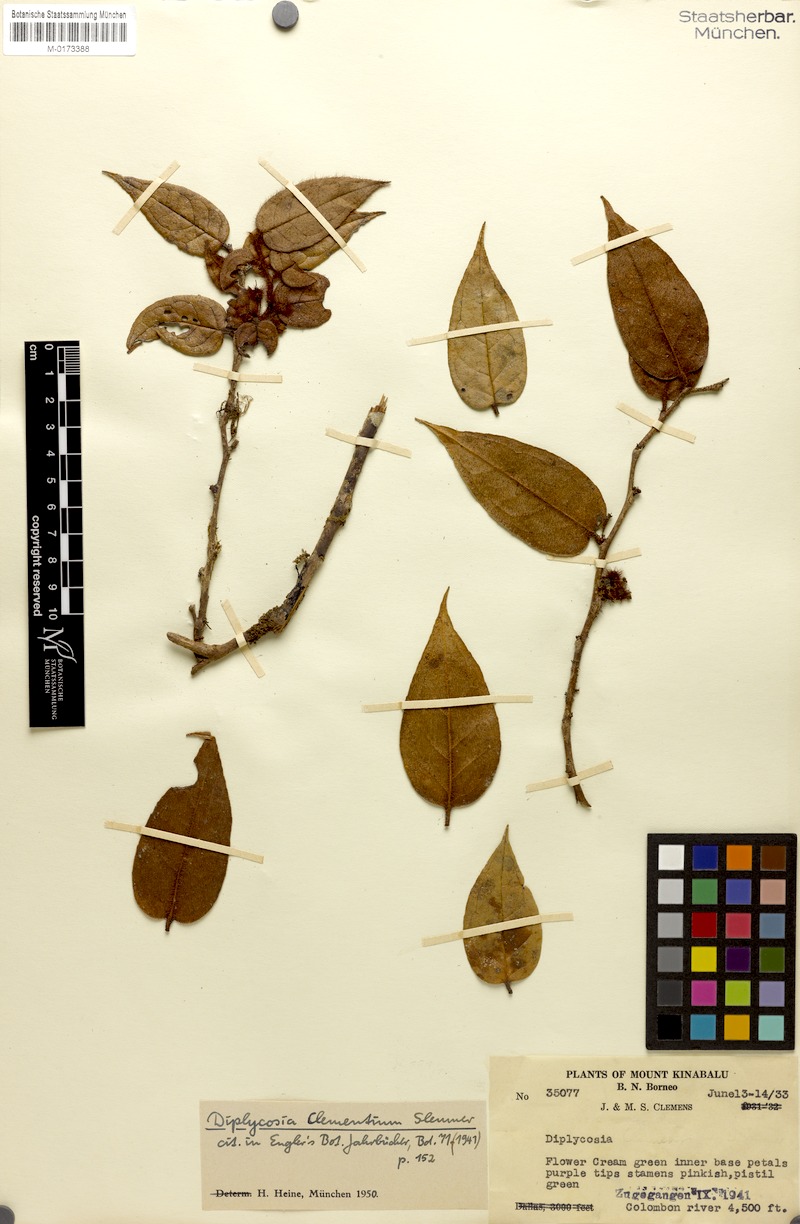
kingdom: Plantae
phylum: Tracheophyta
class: Magnoliopsida
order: Ericales
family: Ericaceae
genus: Gaultheria
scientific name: Gaultheria clementium
